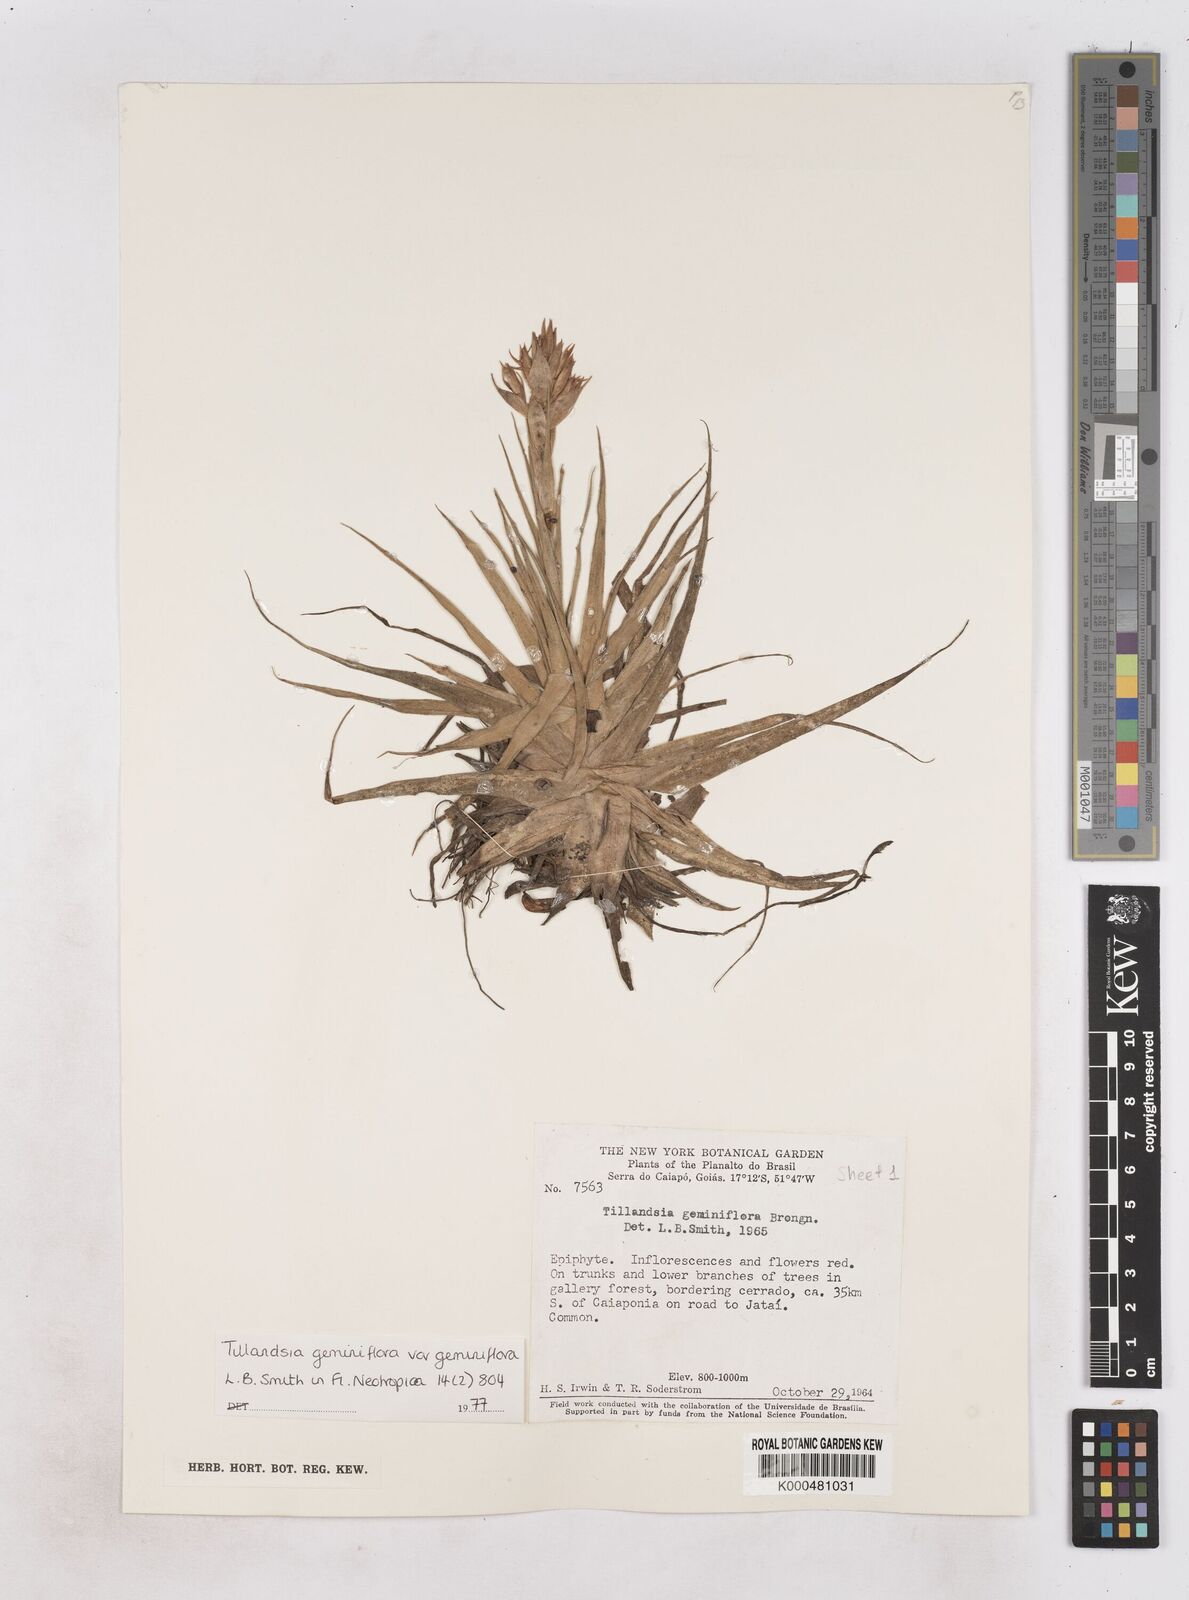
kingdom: Plantae
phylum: Tracheophyta
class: Liliopsida
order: Poales
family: Bromeliaceae
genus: Tillandsia
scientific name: Tillandsia geminiflora
